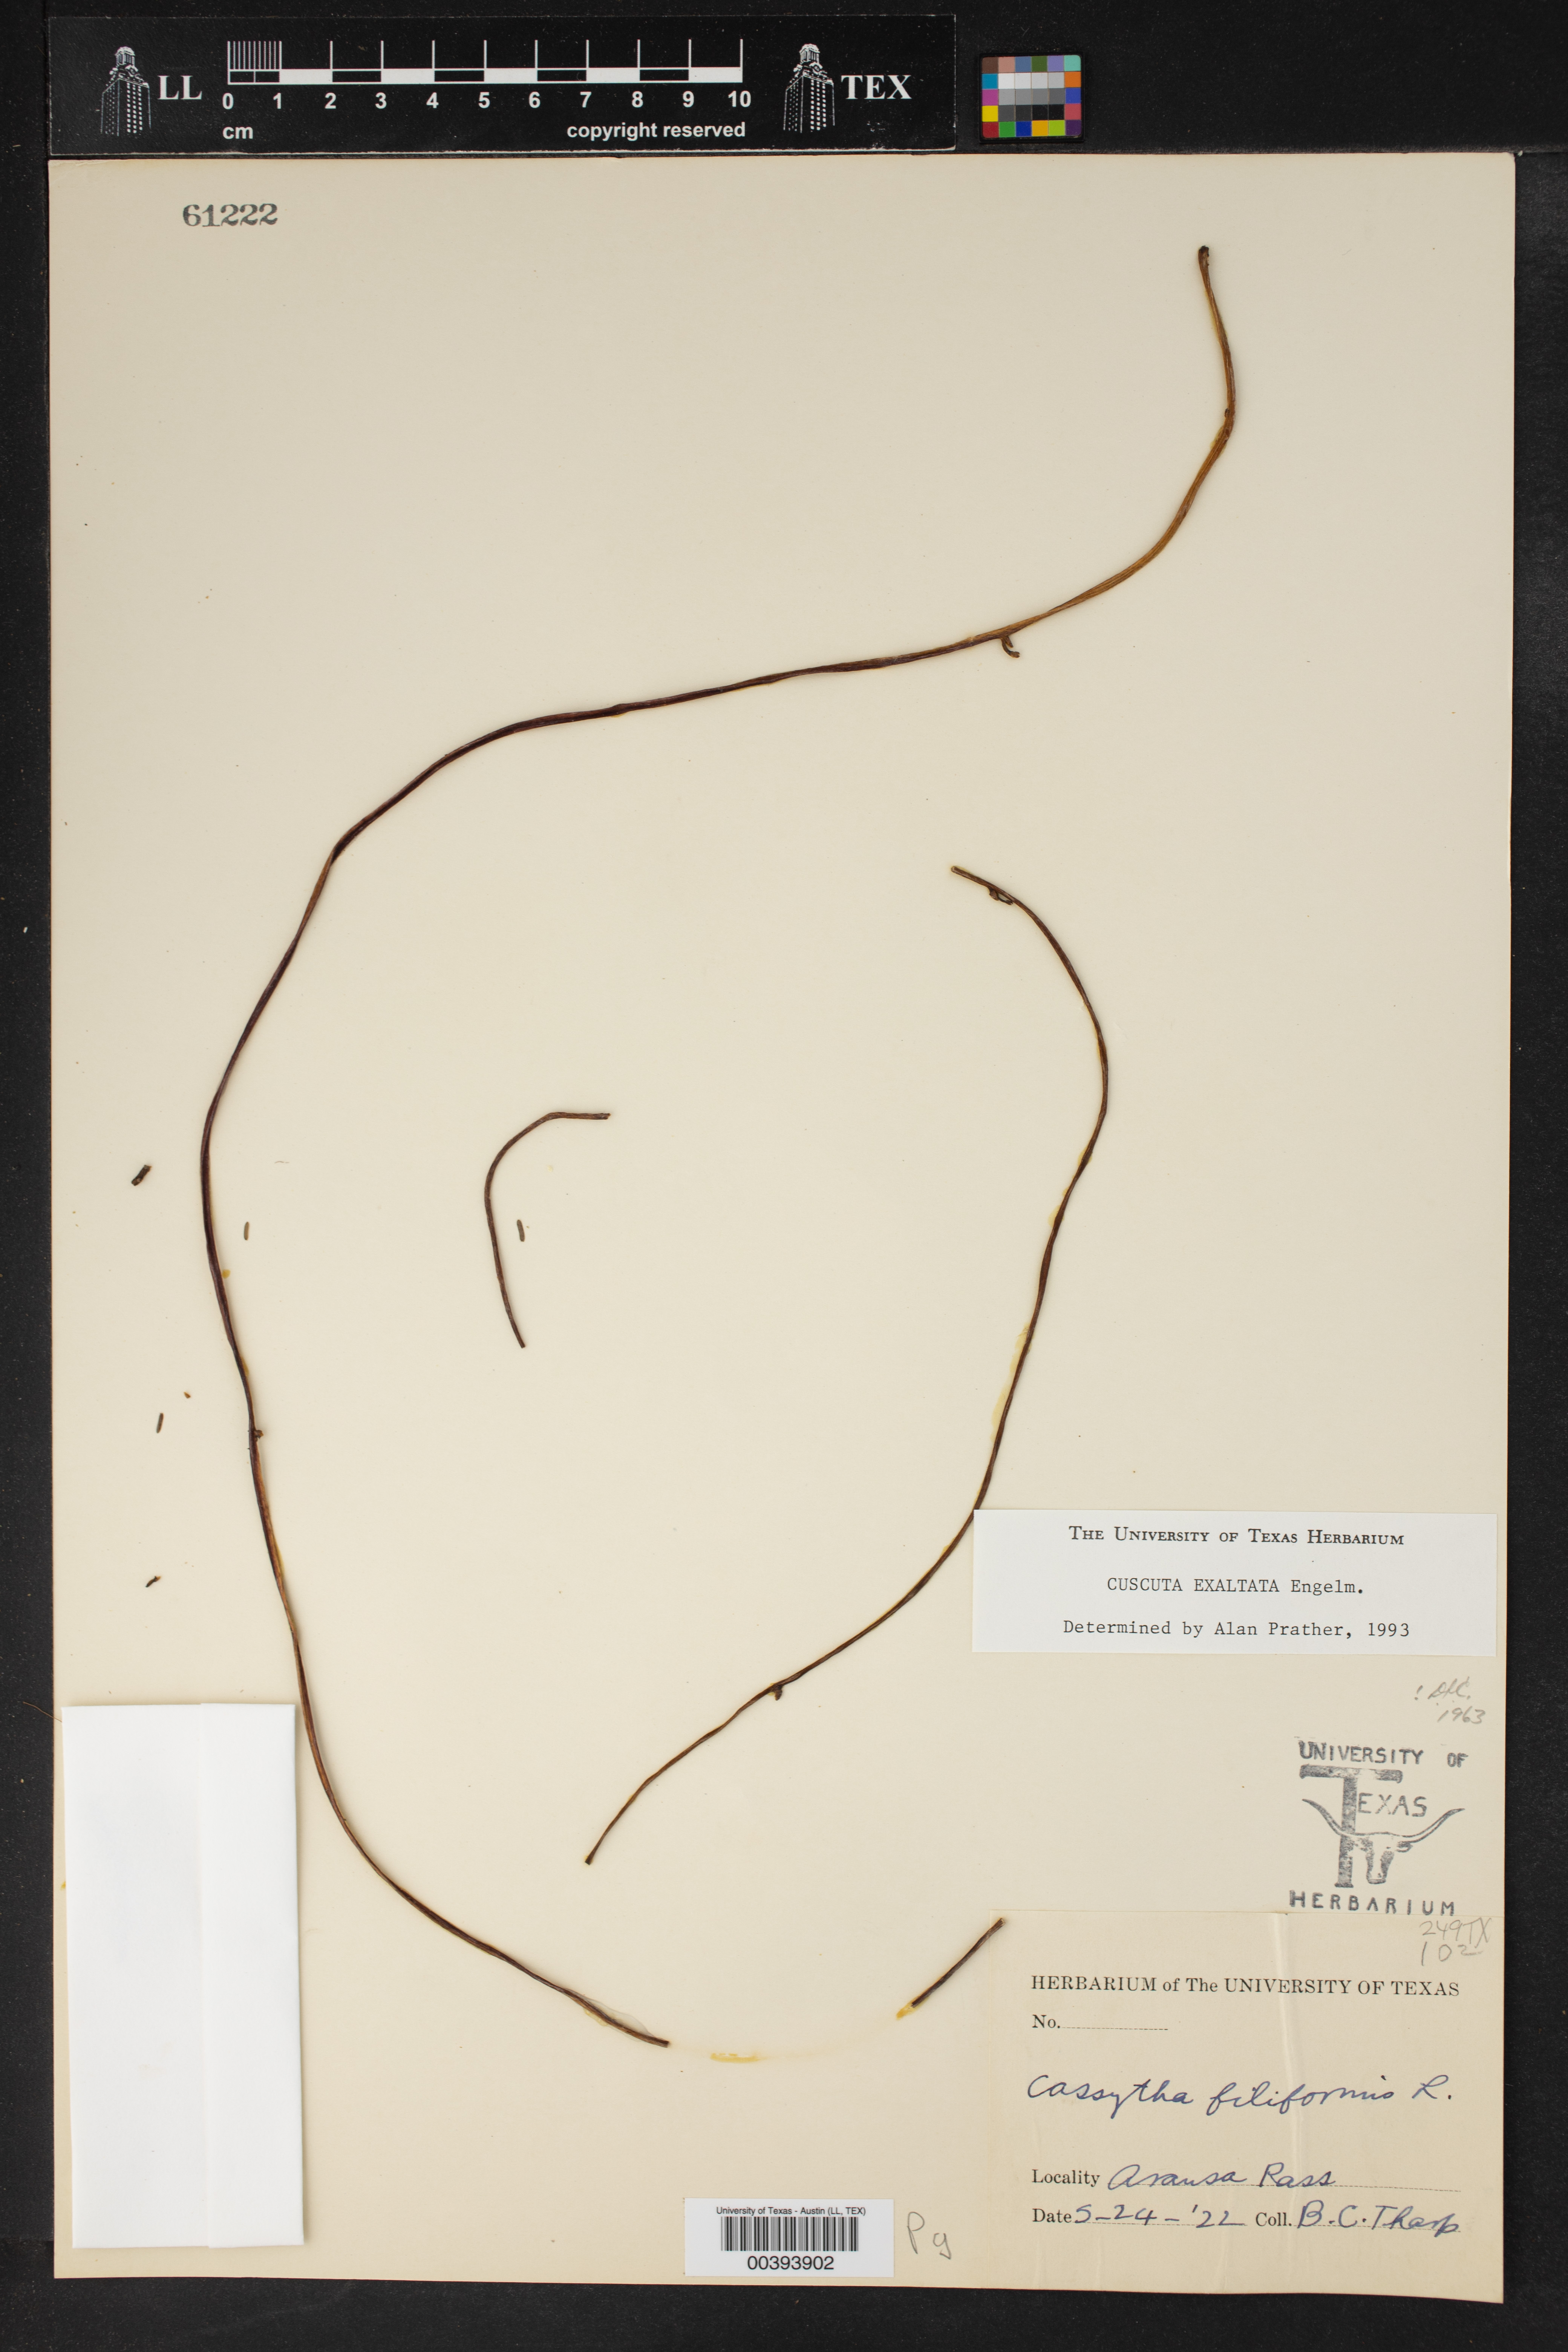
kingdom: Plantae
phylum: Tracheophyta
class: Magnoliopsida
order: Solanales
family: Convolvulaceae
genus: Cuscuta
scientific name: Cuscuta exaltata
